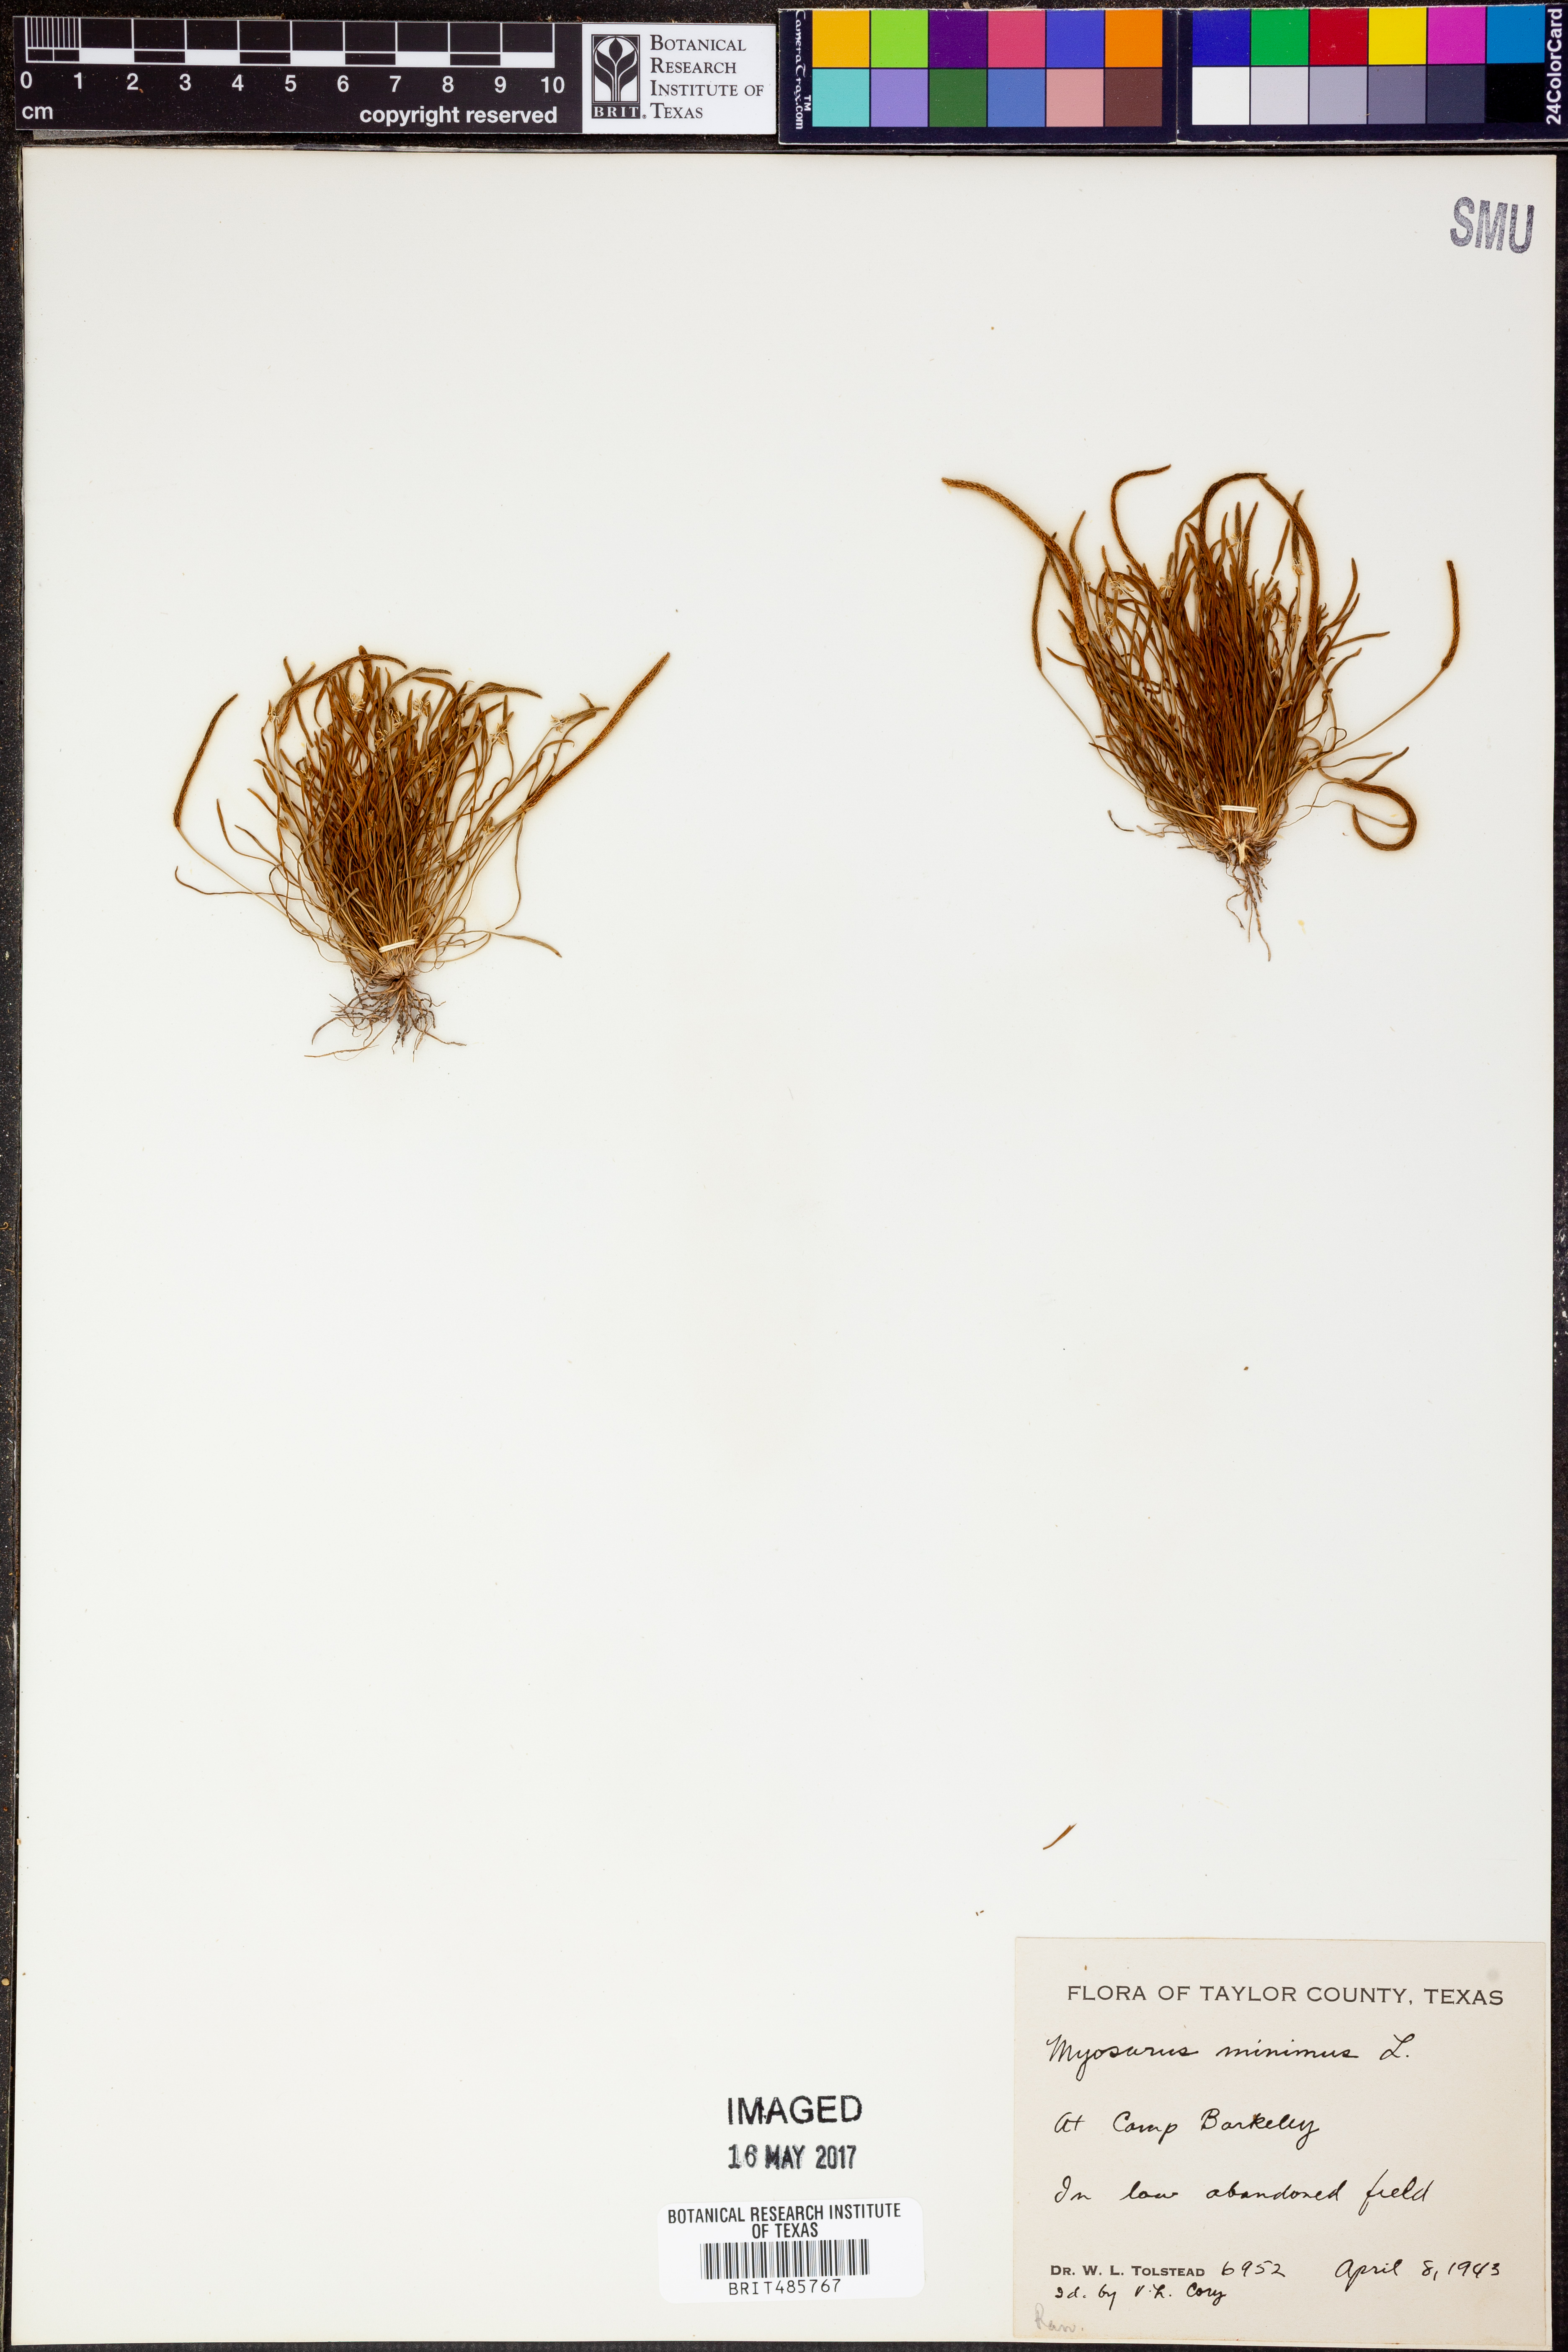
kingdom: Plantae
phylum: Tracheophyta
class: Magnoliopsida
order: Ranunculales
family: Ranunculaceae
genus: Myosurus
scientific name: Myosurus minimus
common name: Mousetail
